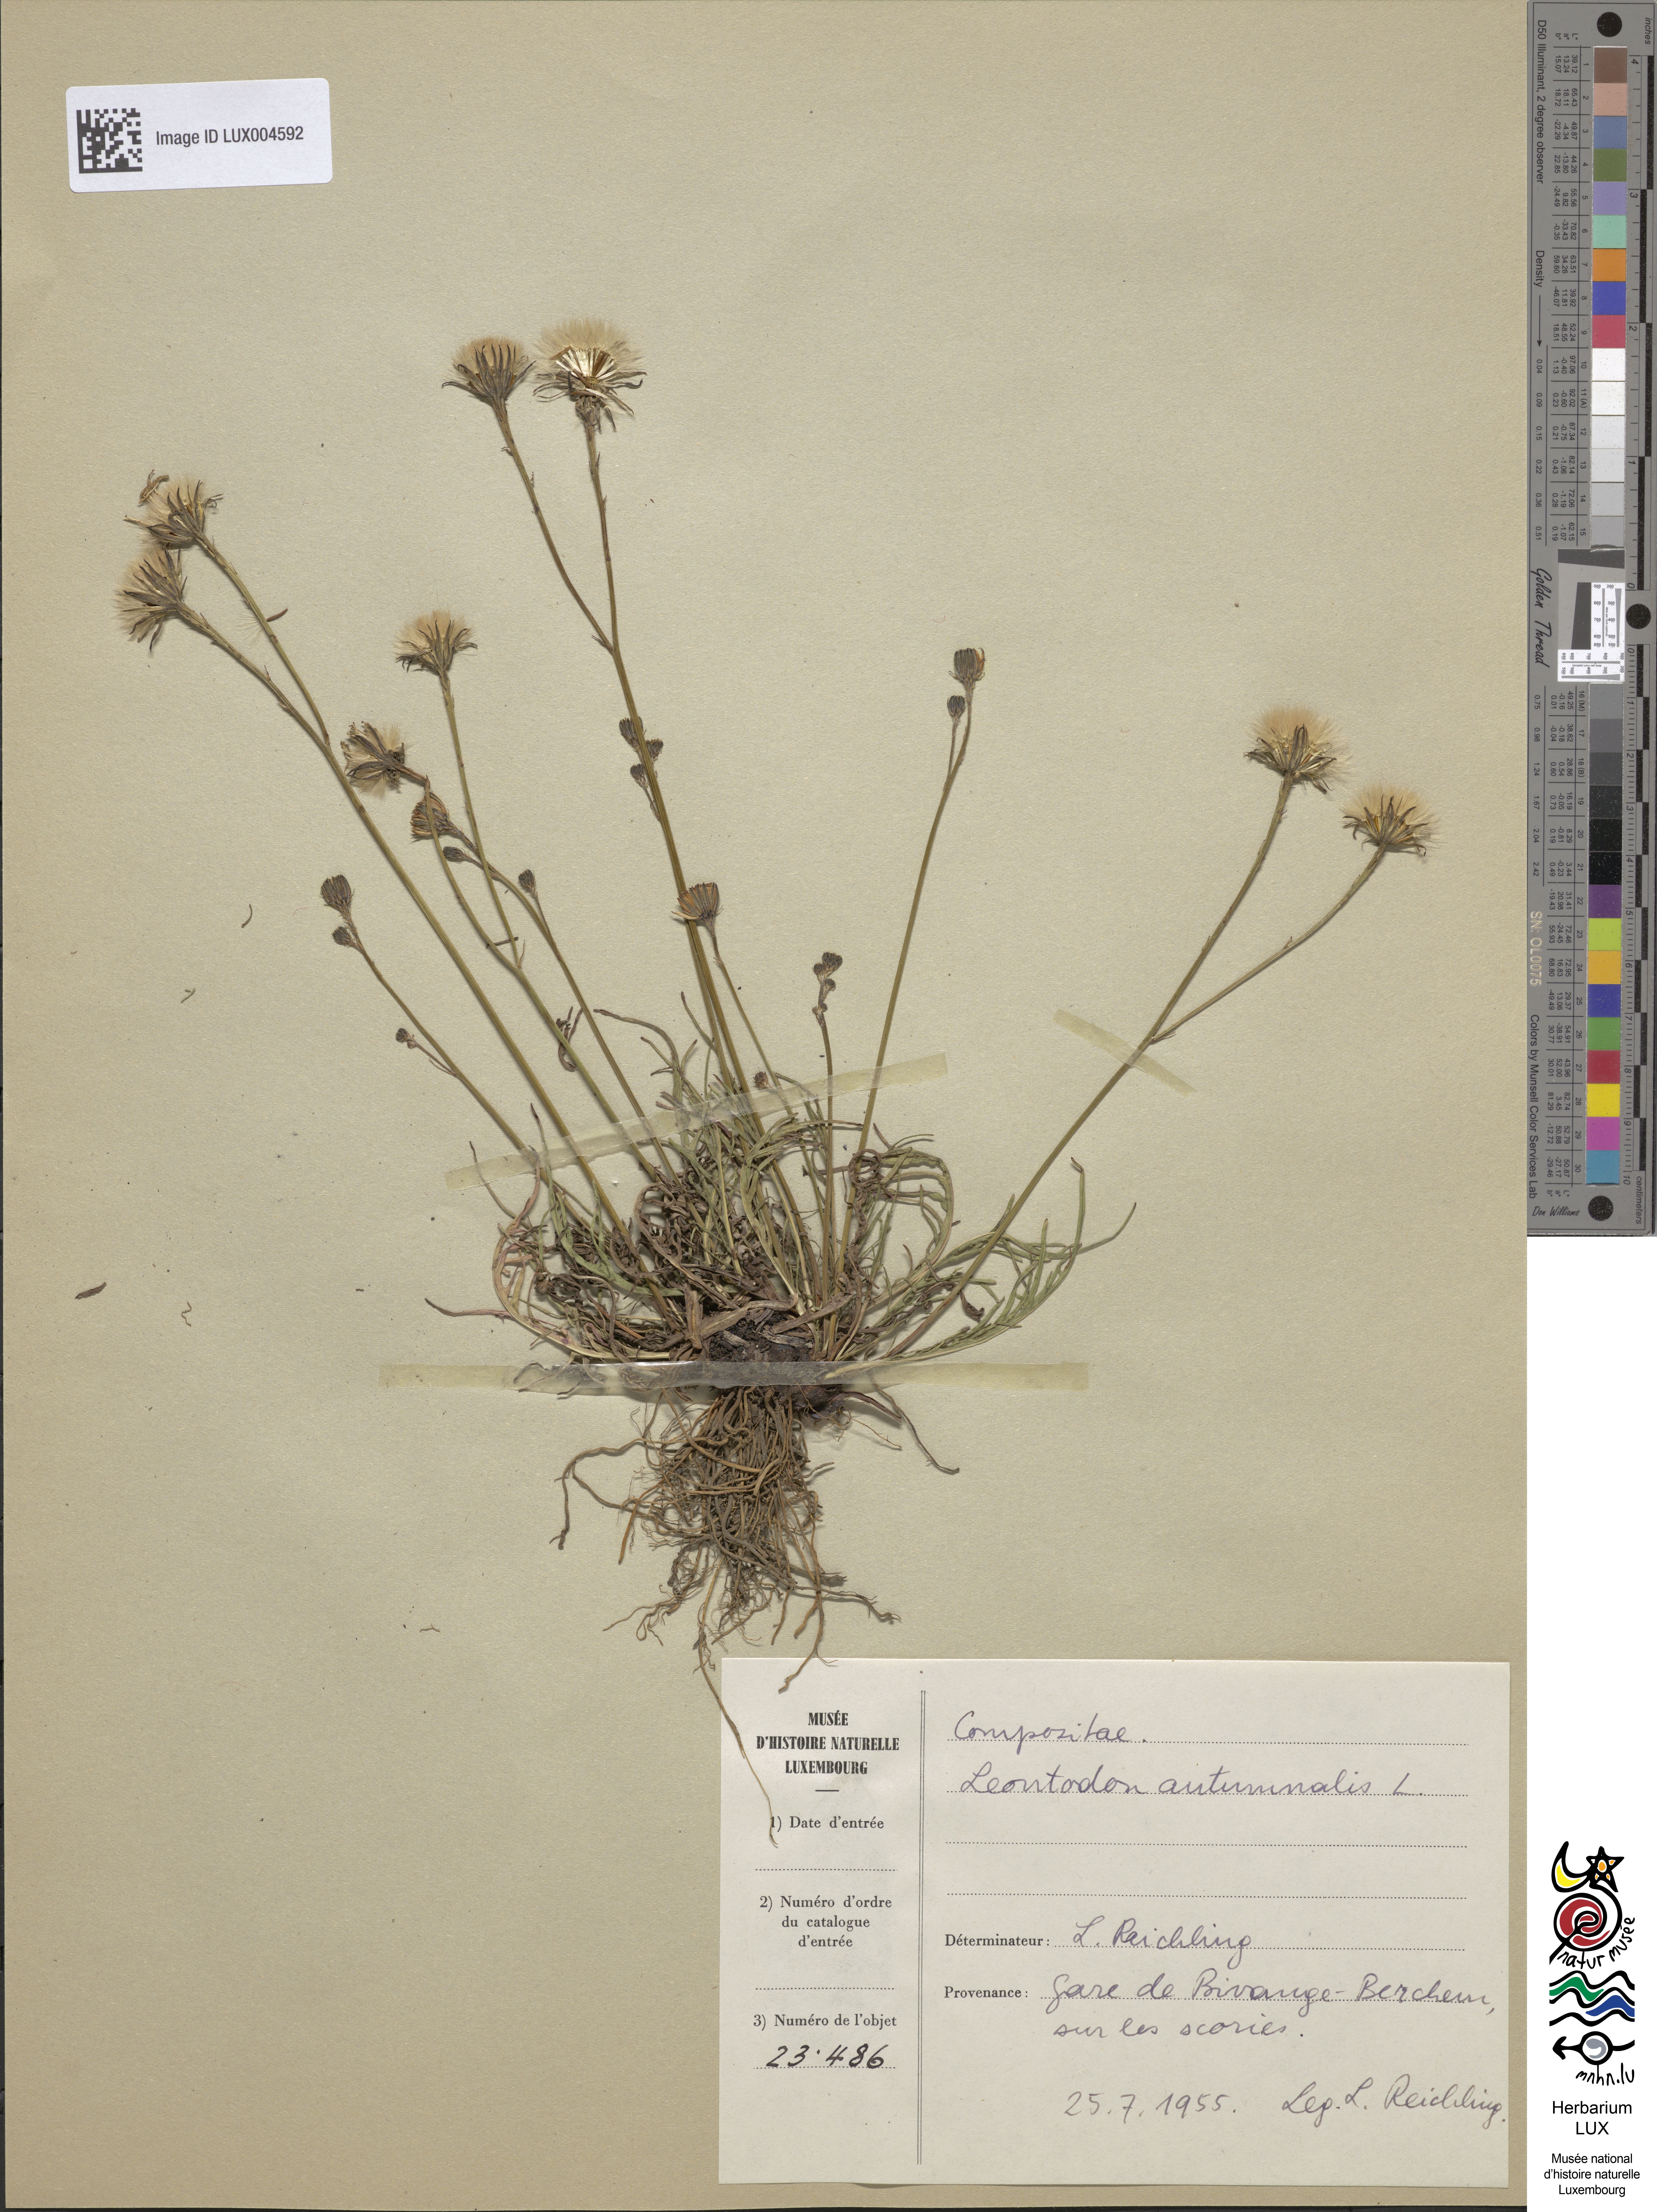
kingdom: Plantae
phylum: Tracheophyta
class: Magnoliopsida
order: Asterales
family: Asteraceae
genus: Scorzoneroides
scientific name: Scorzoneroides autumnalis
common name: Autumn hawkbit
